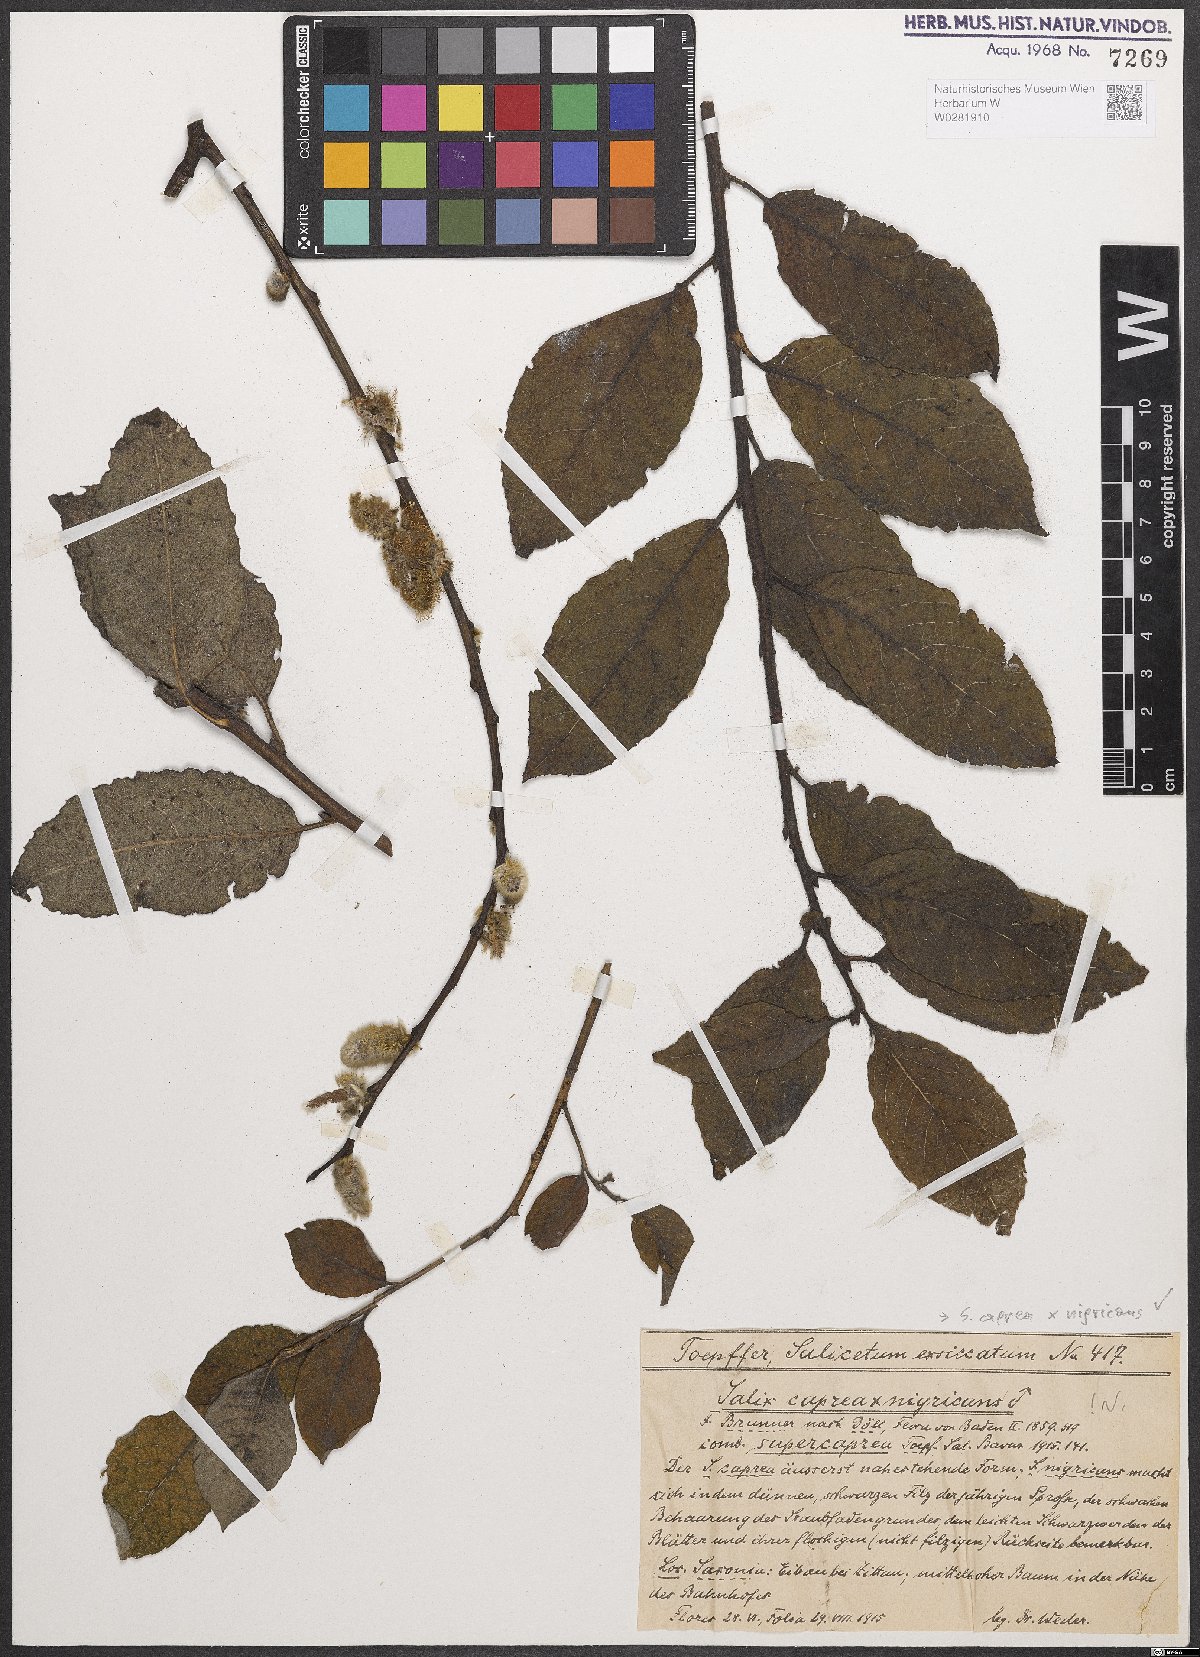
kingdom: Plantae
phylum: Tracheophyta
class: Magnoliopsida
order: Malpighiales
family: Salicaceae
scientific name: Salicaceae
